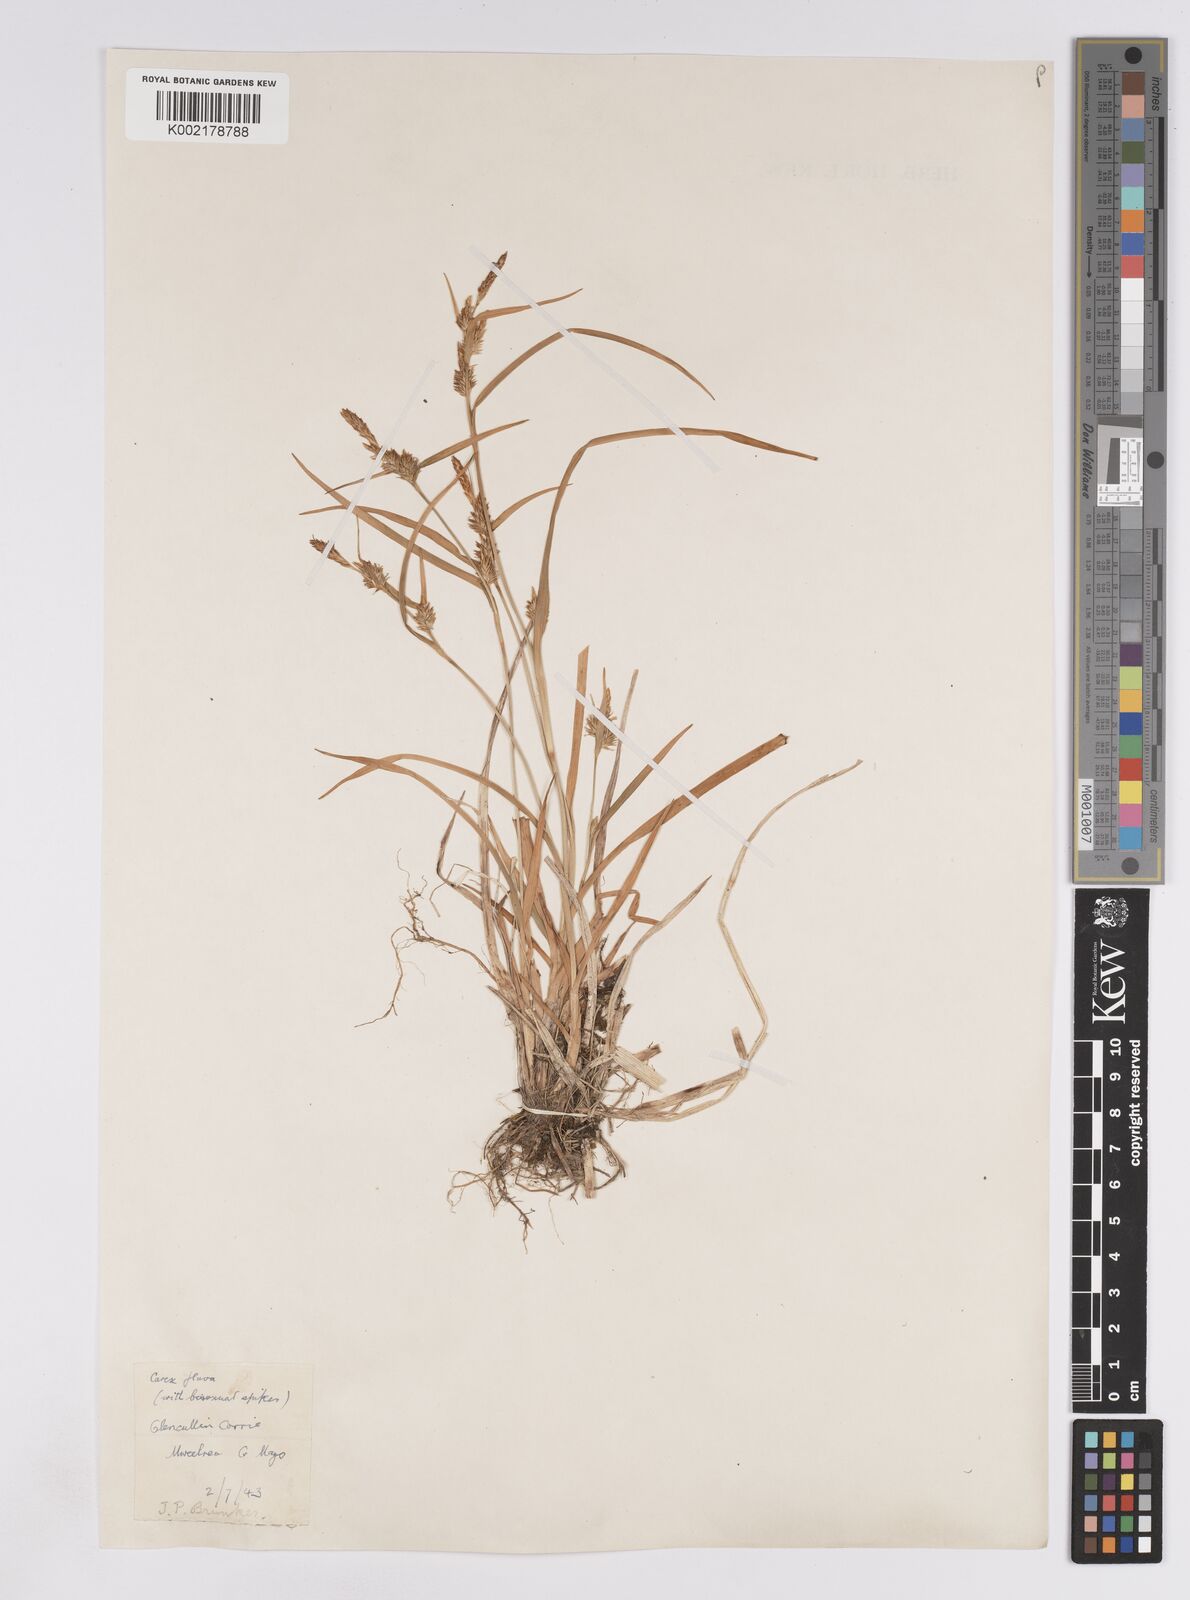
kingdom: Plantae
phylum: Tracheophyta
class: Liliopsida
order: Poales
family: Cyperaceae
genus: Carex
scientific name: Carex lepidocarpa
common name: Long-stalked yellow-sedge
